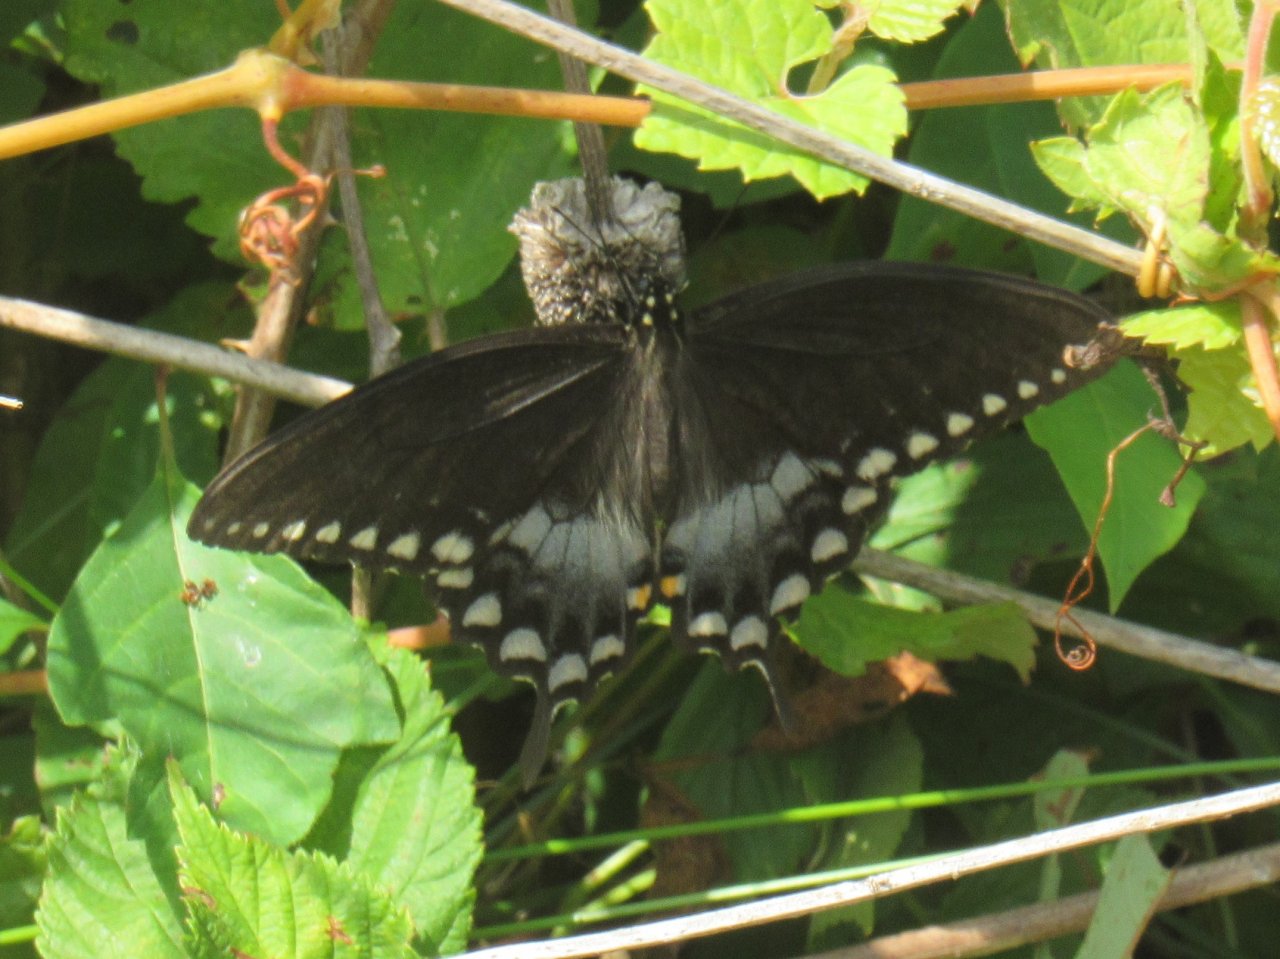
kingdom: Animalia
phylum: Arthropoda
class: Insecta
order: Lepidoptera
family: Papilionidae
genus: Pterourus
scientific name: Pterourus troilus
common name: Spicebush Swallowtail
